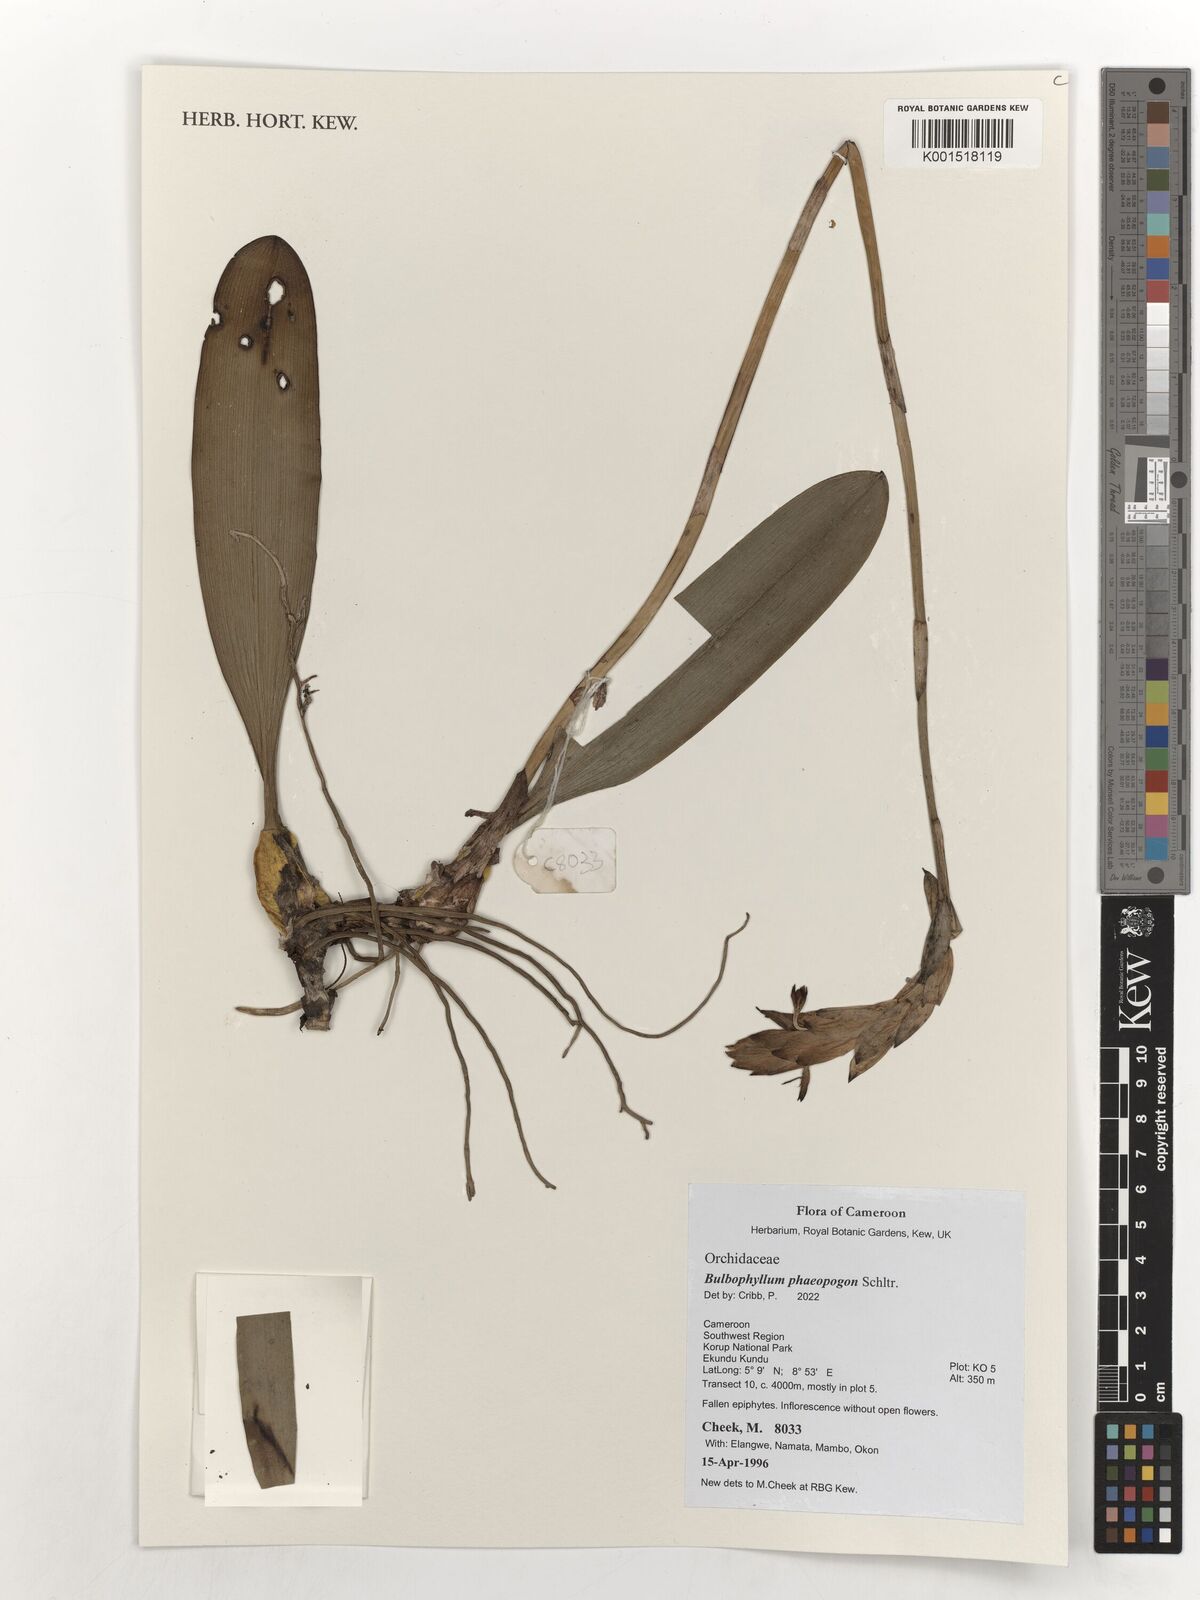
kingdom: Plantae
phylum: Tracheophyta
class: Liliopsida
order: Asparagales
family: Orchidaceae
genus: Bulbophyllum
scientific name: Bulbophyllum schinzianum
